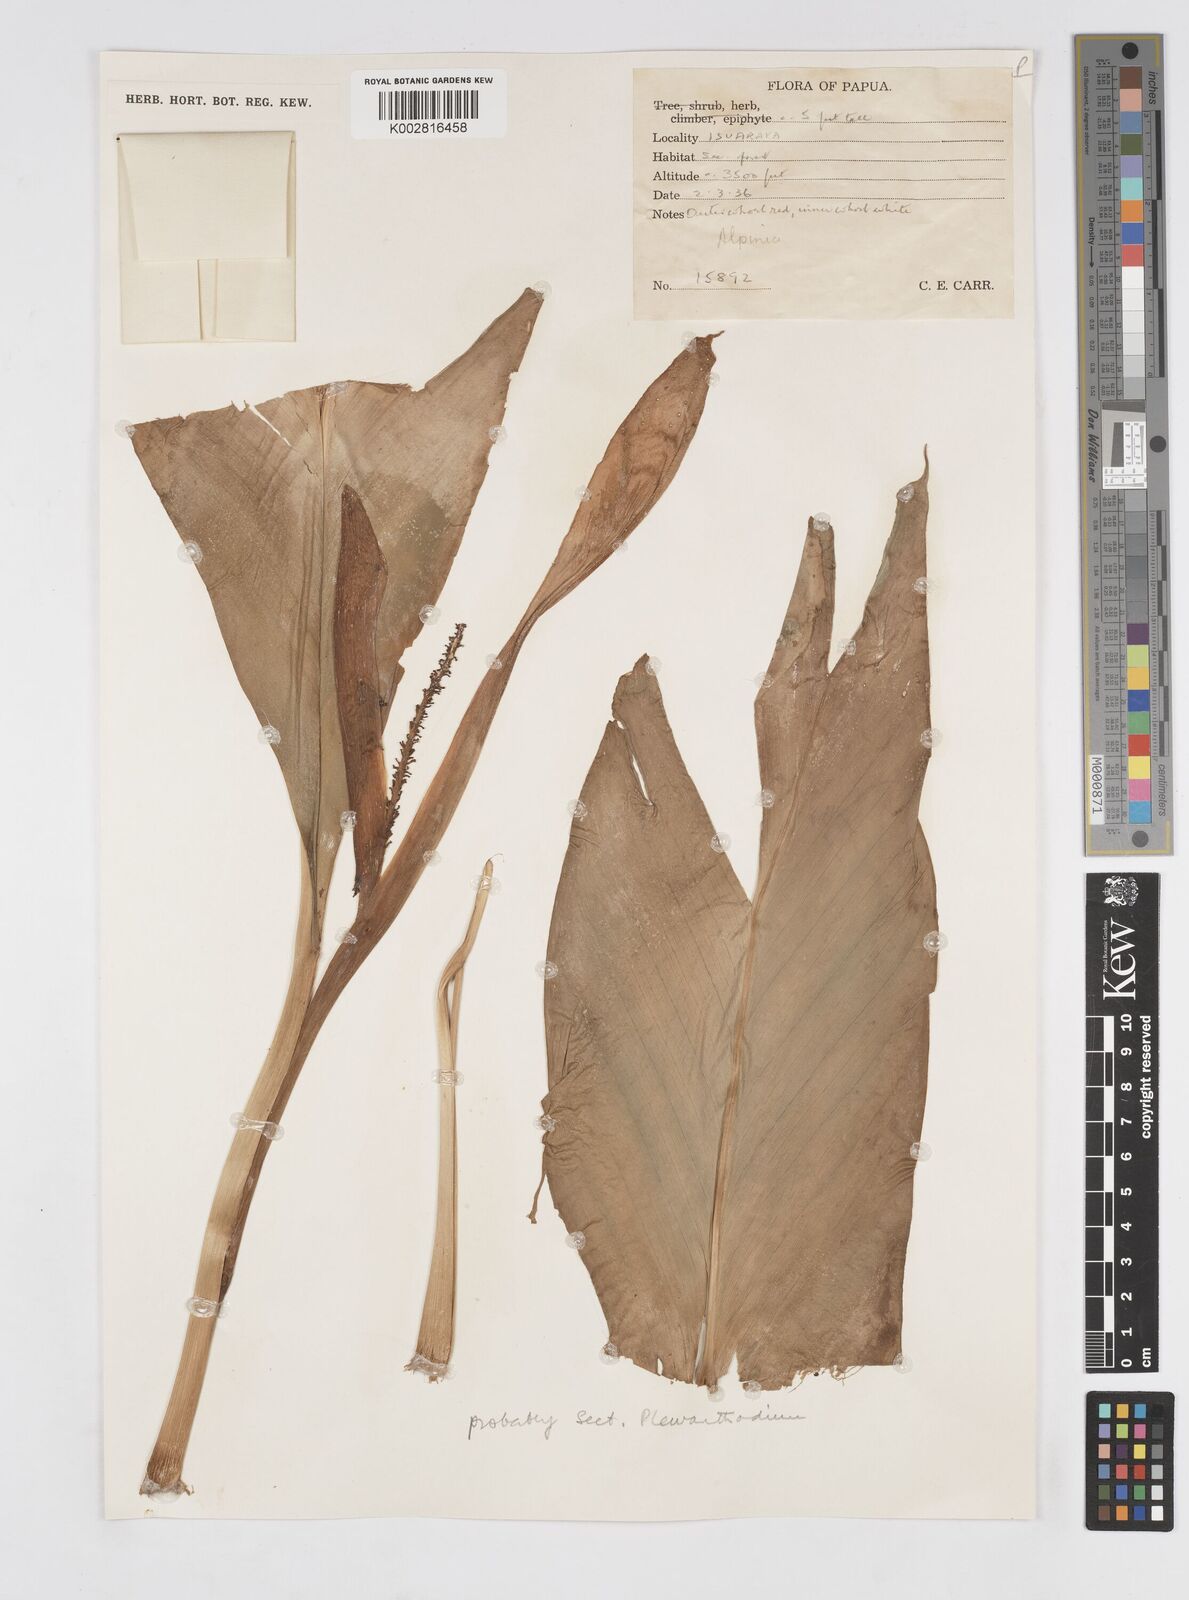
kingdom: Plantae
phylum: Tracheophyta
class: Liliopsida
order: Zingiberales
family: Zingiberaceae
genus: Alpinia
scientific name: Alpinia
